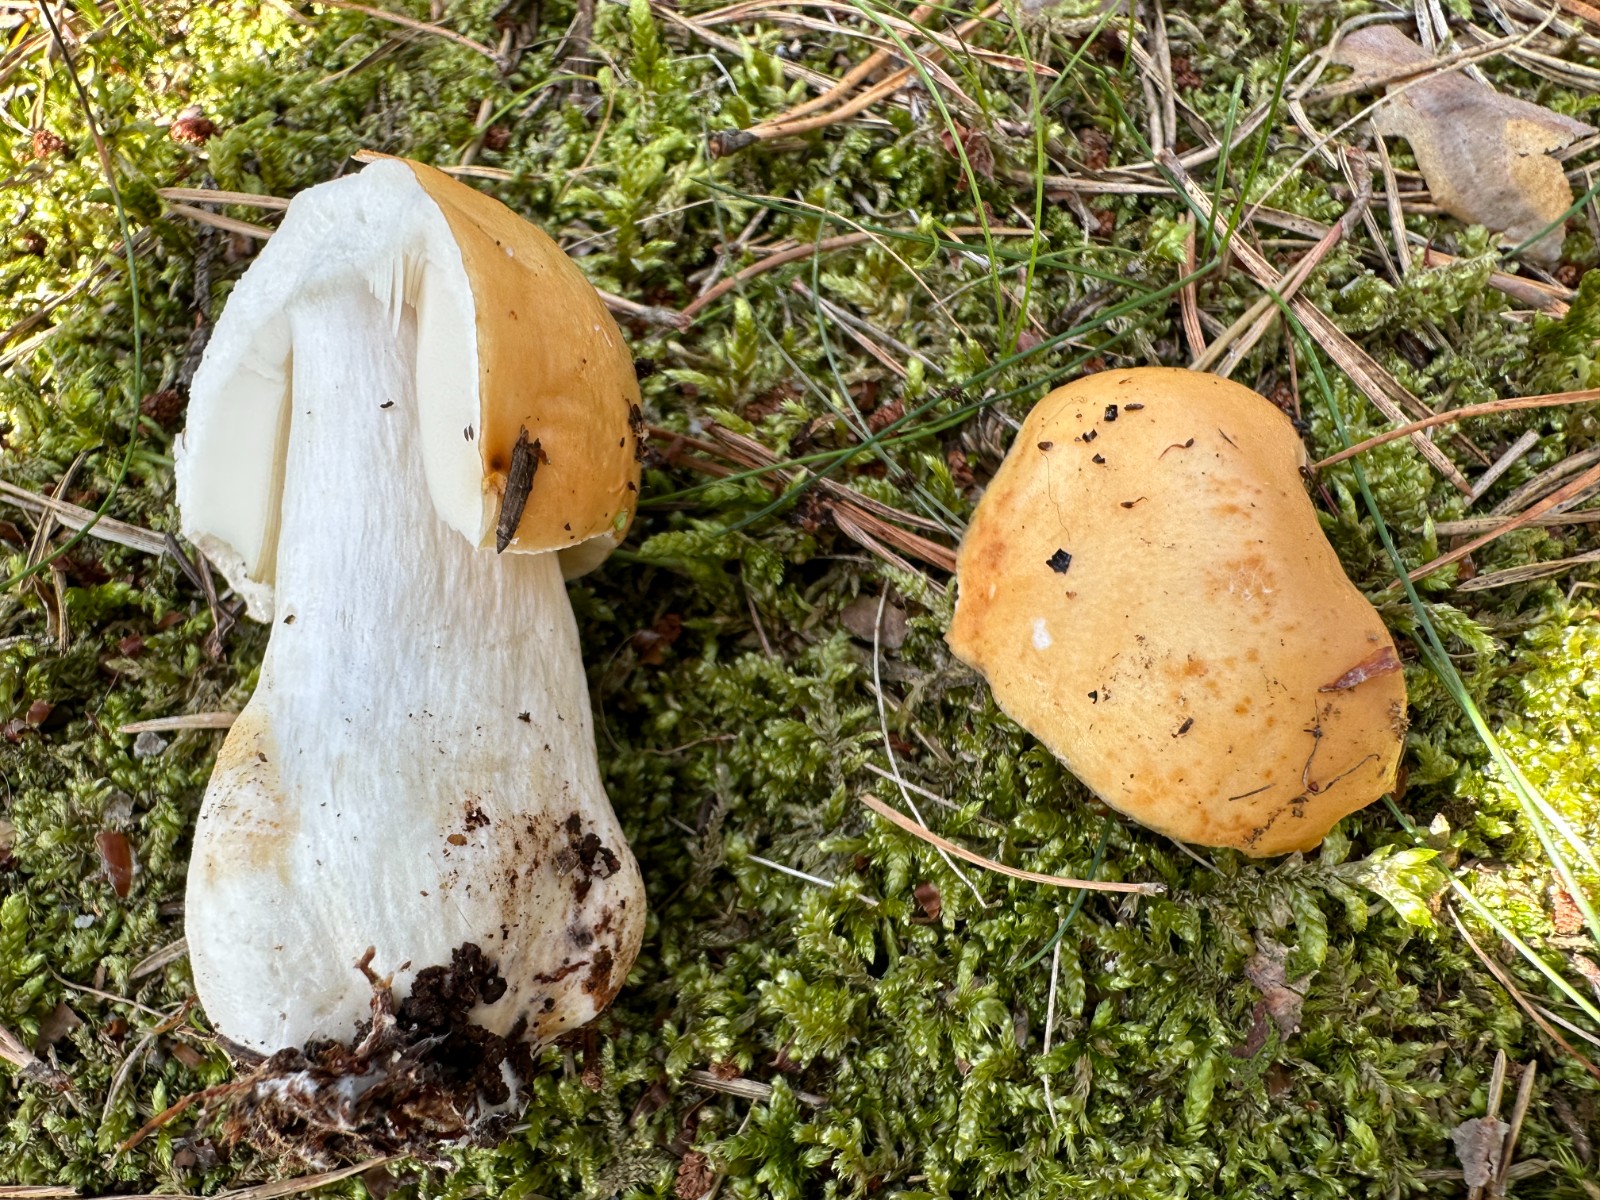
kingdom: Fungi
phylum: Basidiomycota
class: Agaricomycetes
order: Russulales
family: Russulaceae
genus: Russula
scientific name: Russula ochroleuca
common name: okkergul skørhat
